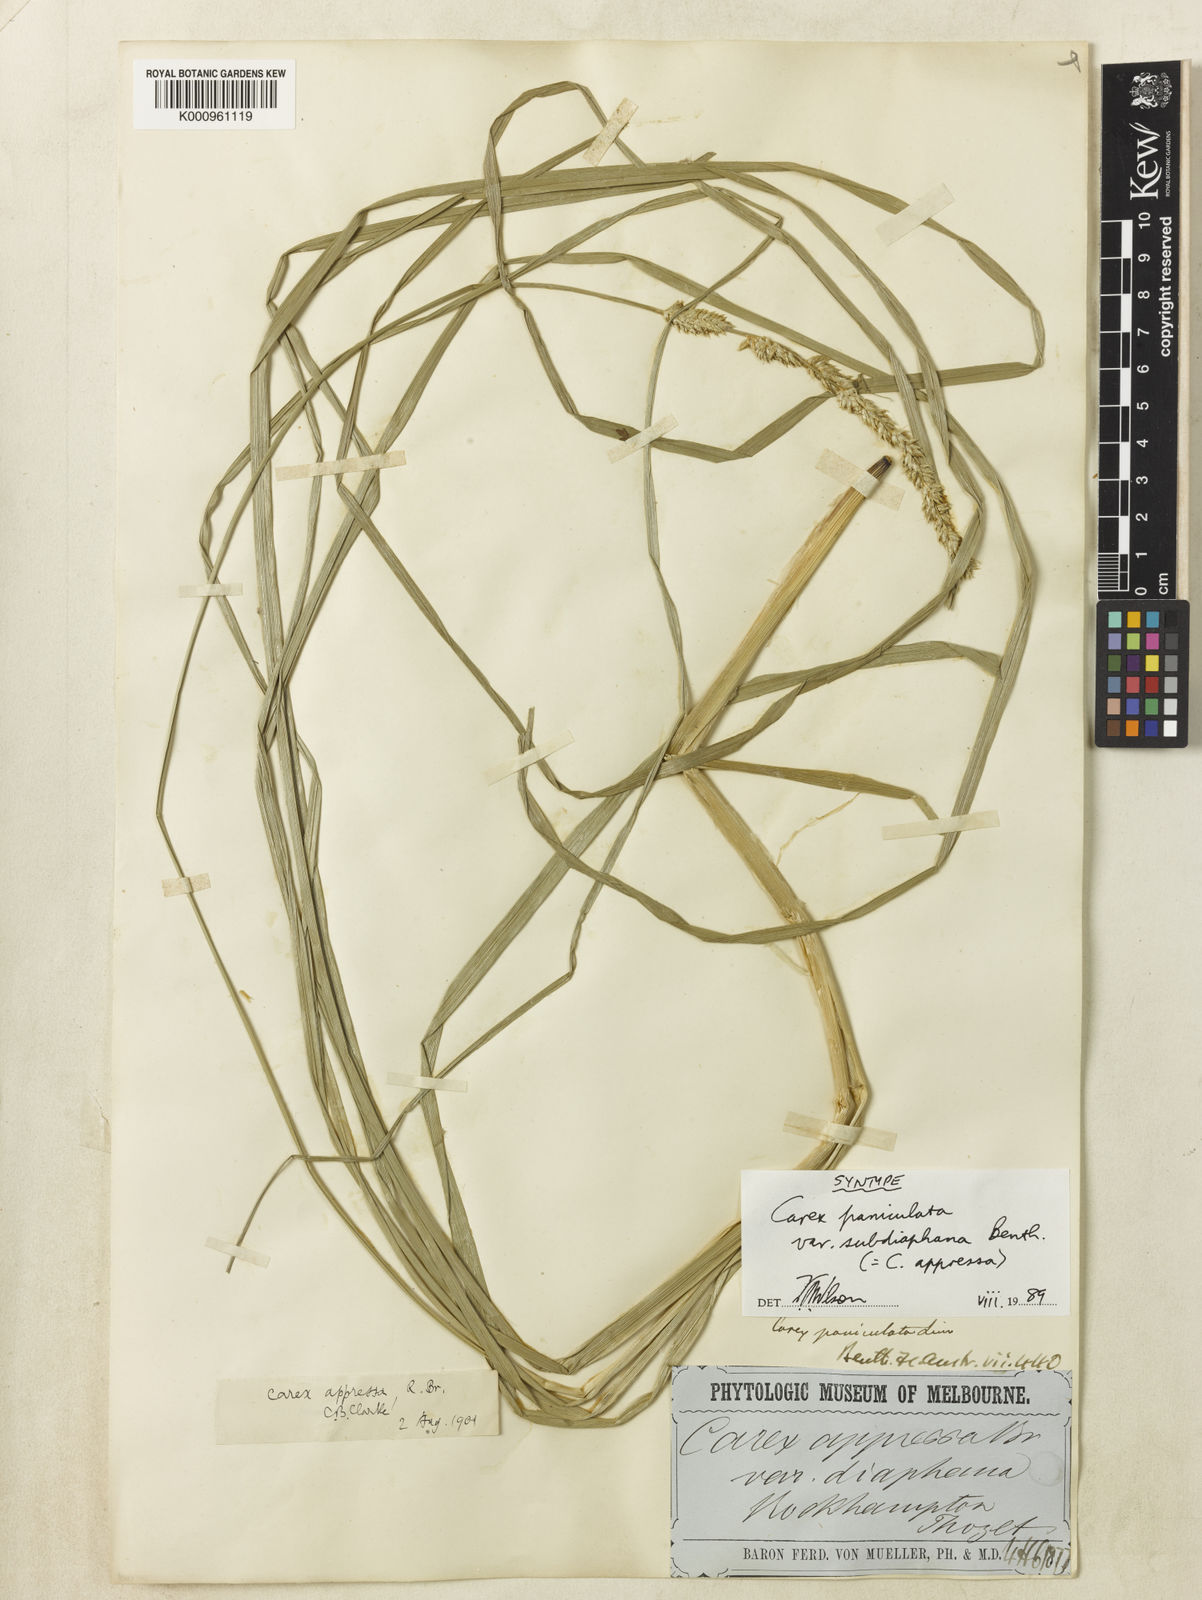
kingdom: Plantae
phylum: Tracheophyta
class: Liliopsida
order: Poales
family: Cyperaceae
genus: Carex
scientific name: Carex appressa
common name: Tussock sedge
